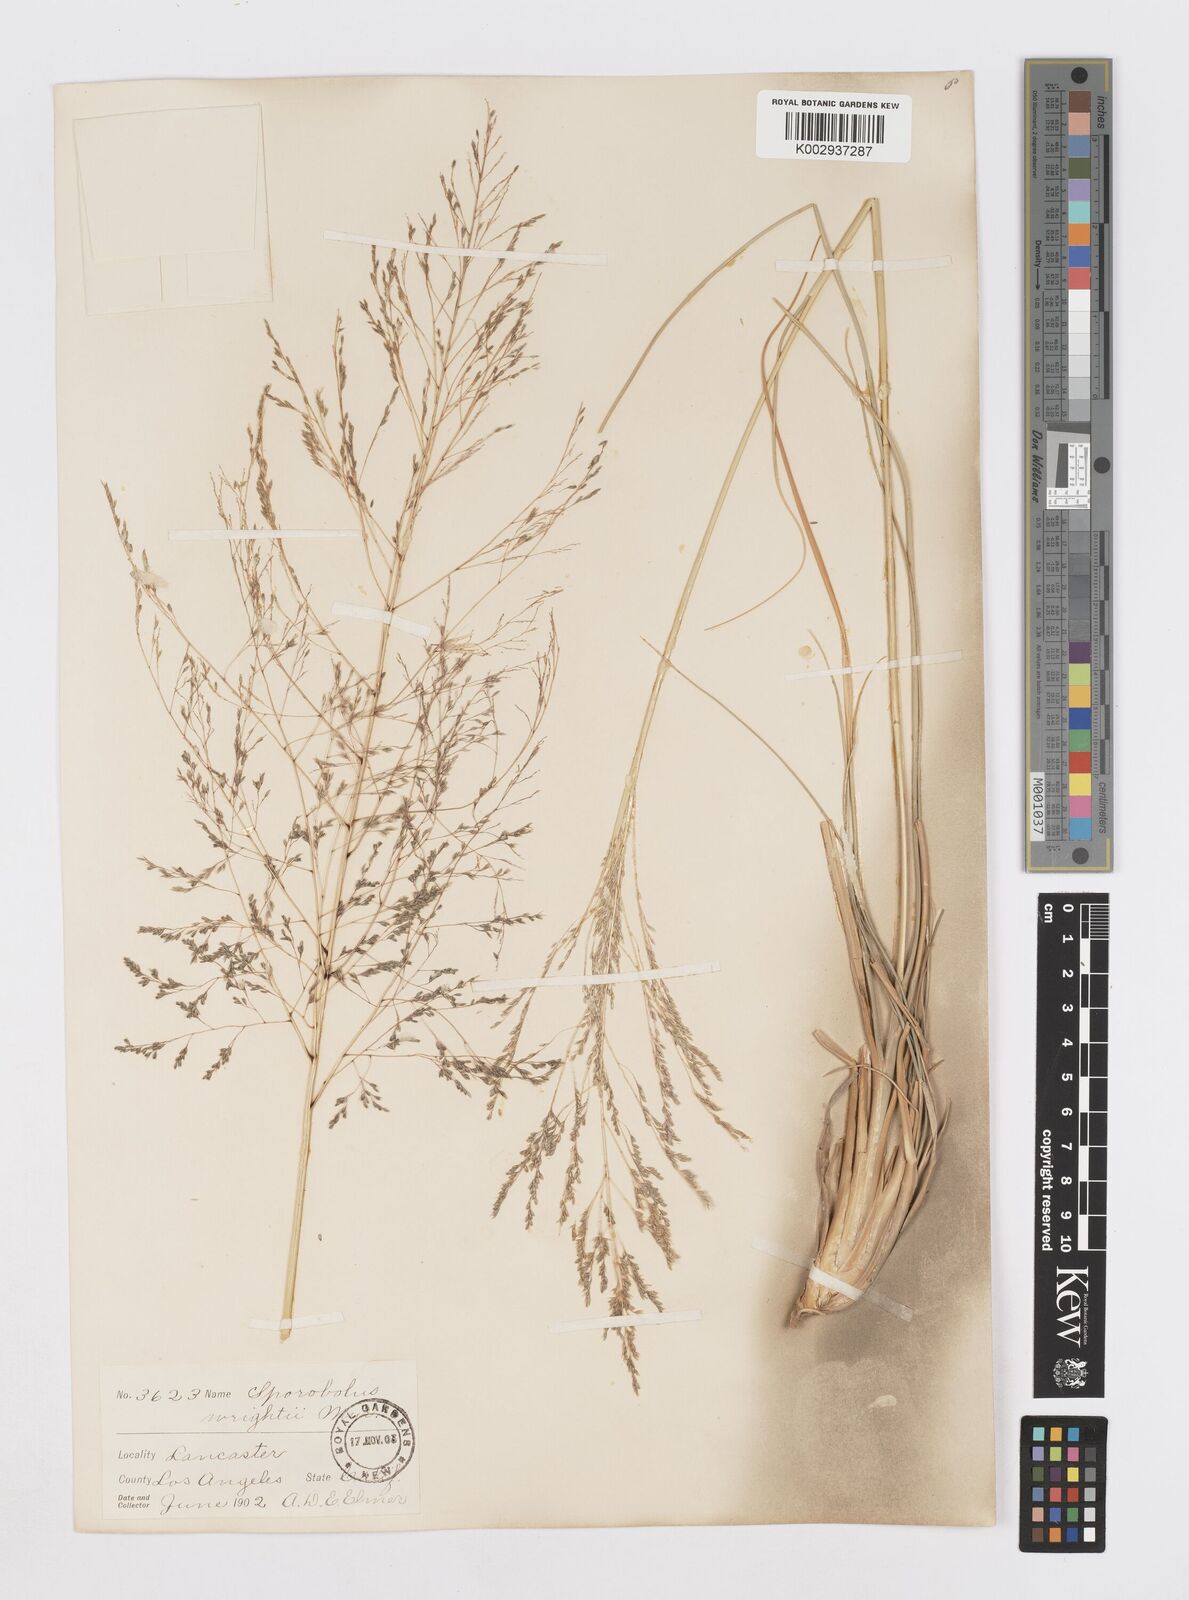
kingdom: Plantae
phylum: Tracheophyta
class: Liliopsida
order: Poales
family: Poaceae
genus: Sporobolus
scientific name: Sporobolus wrightii
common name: Big alkali sacaton
